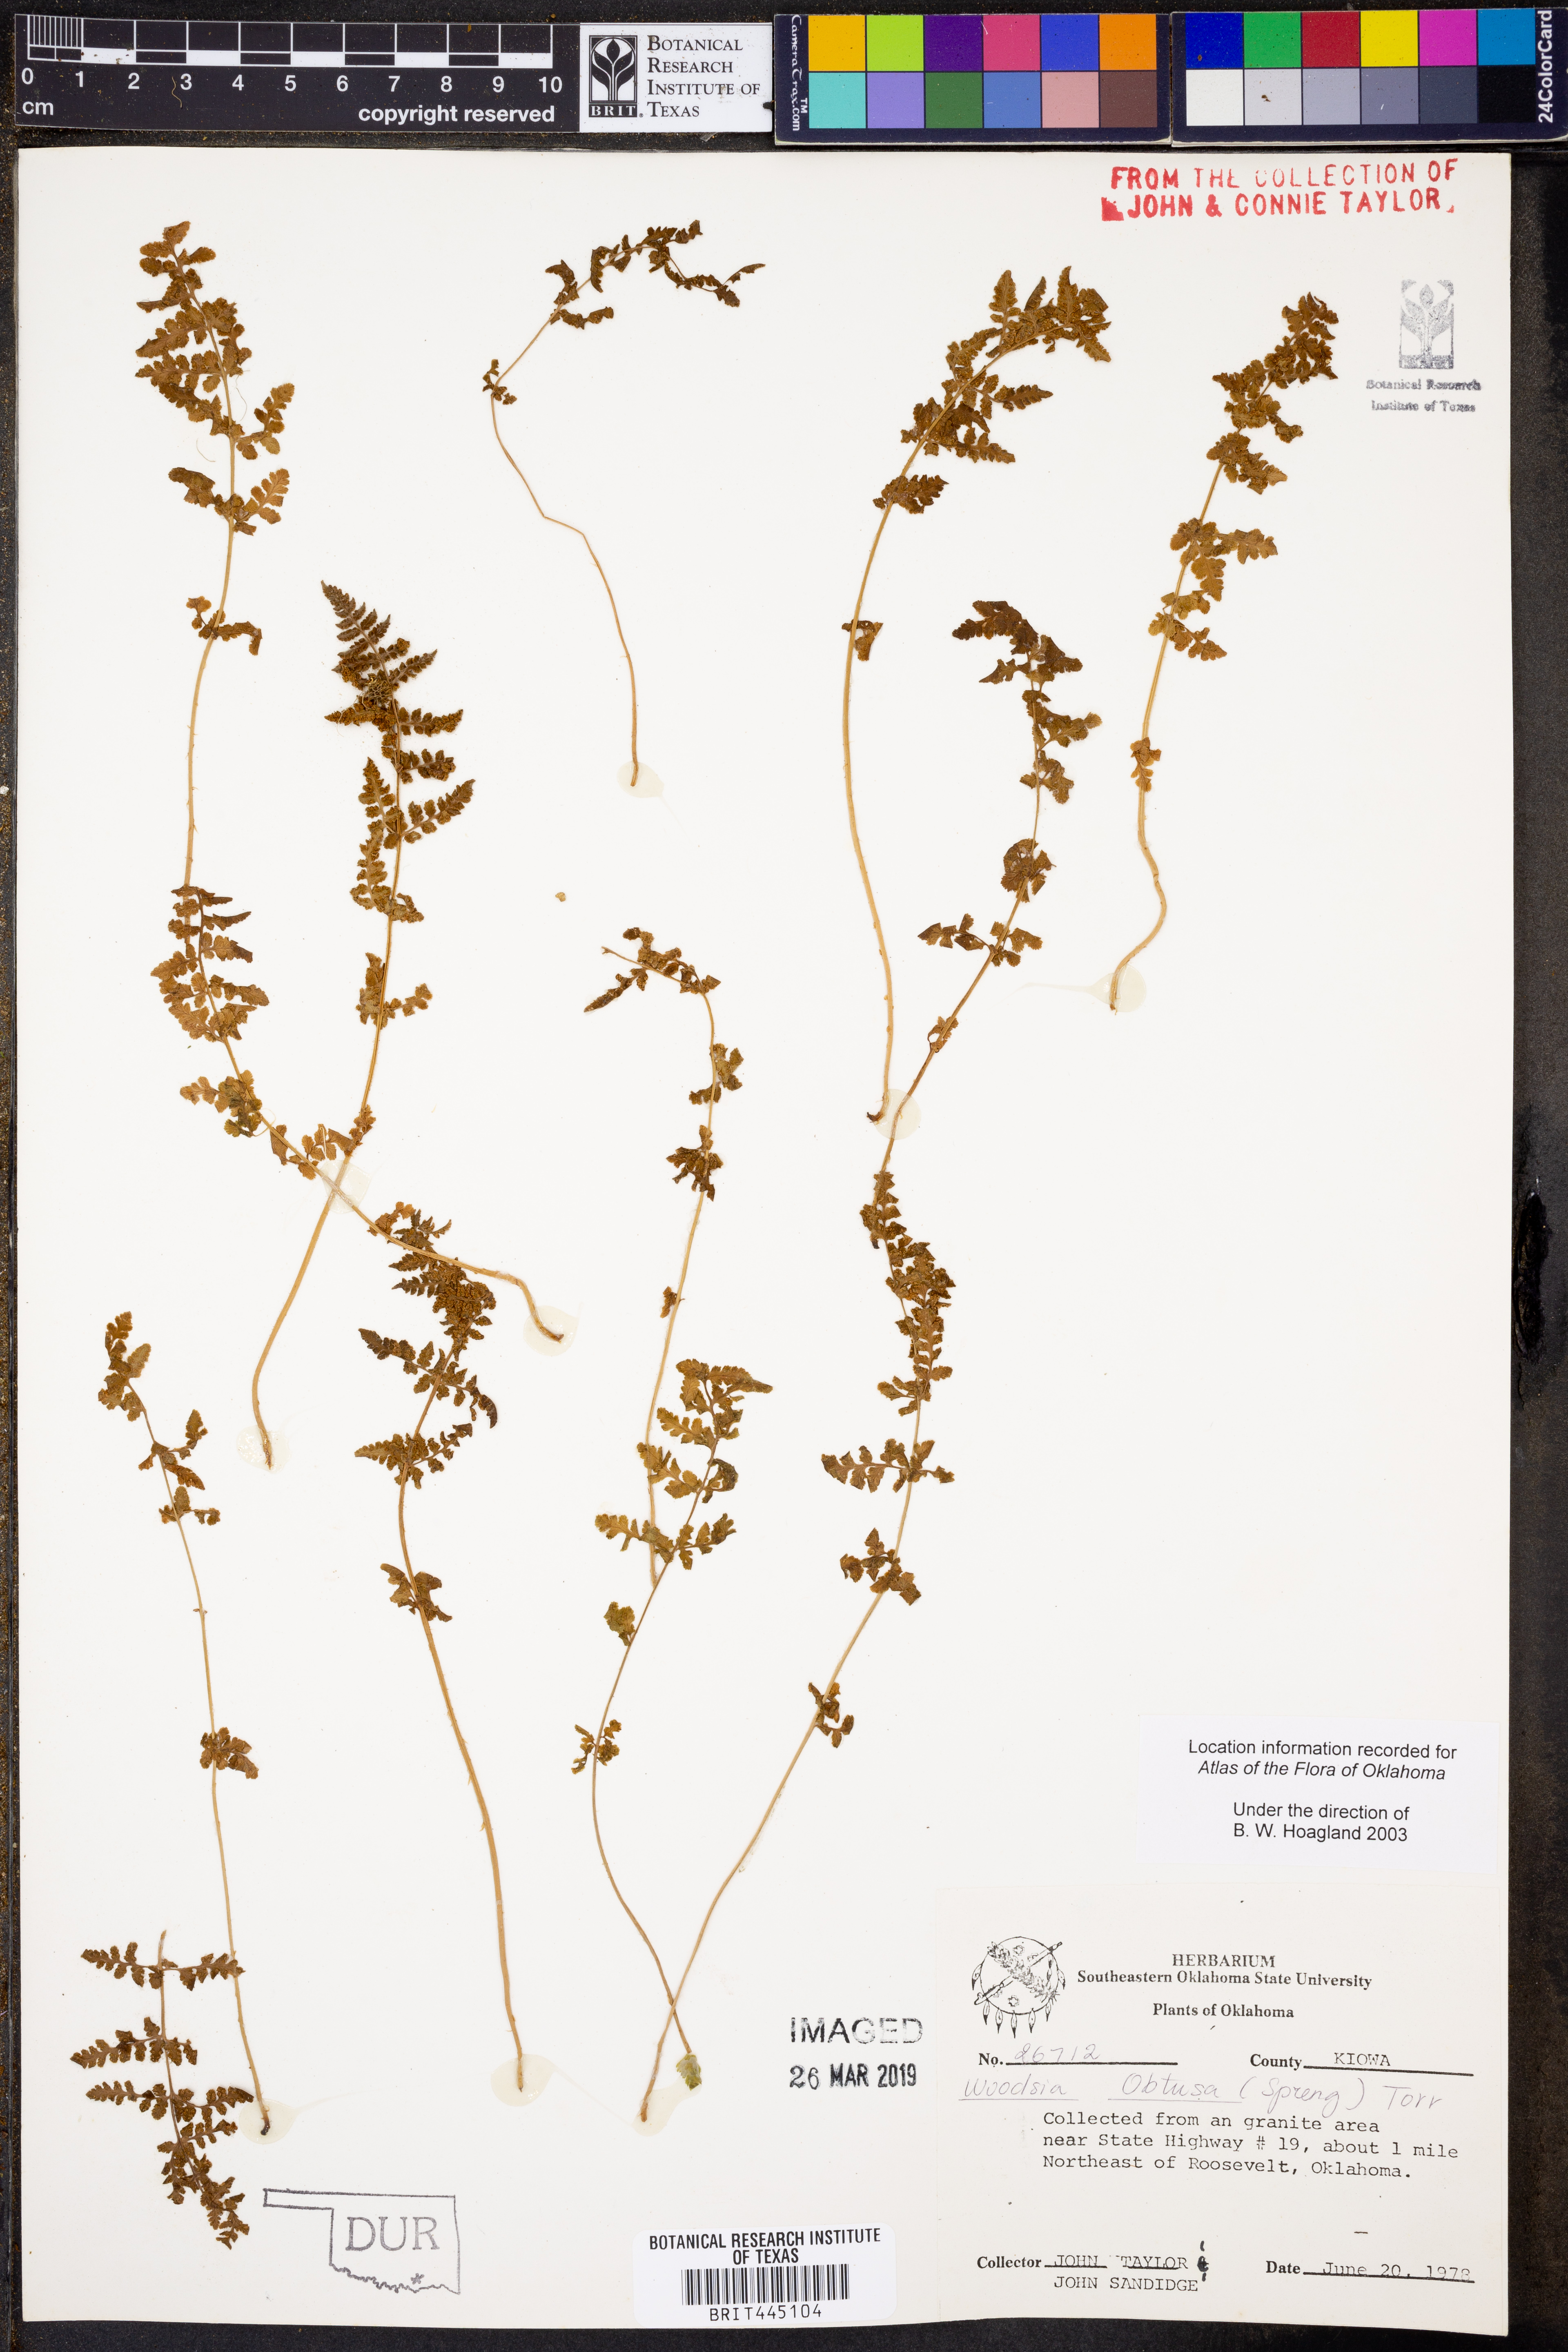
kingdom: Plantae
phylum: Tracheophyta
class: Polypodiopsida
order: Polypodiales
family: Woodsiaceae
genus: Physematium
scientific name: Physematium obtusum
